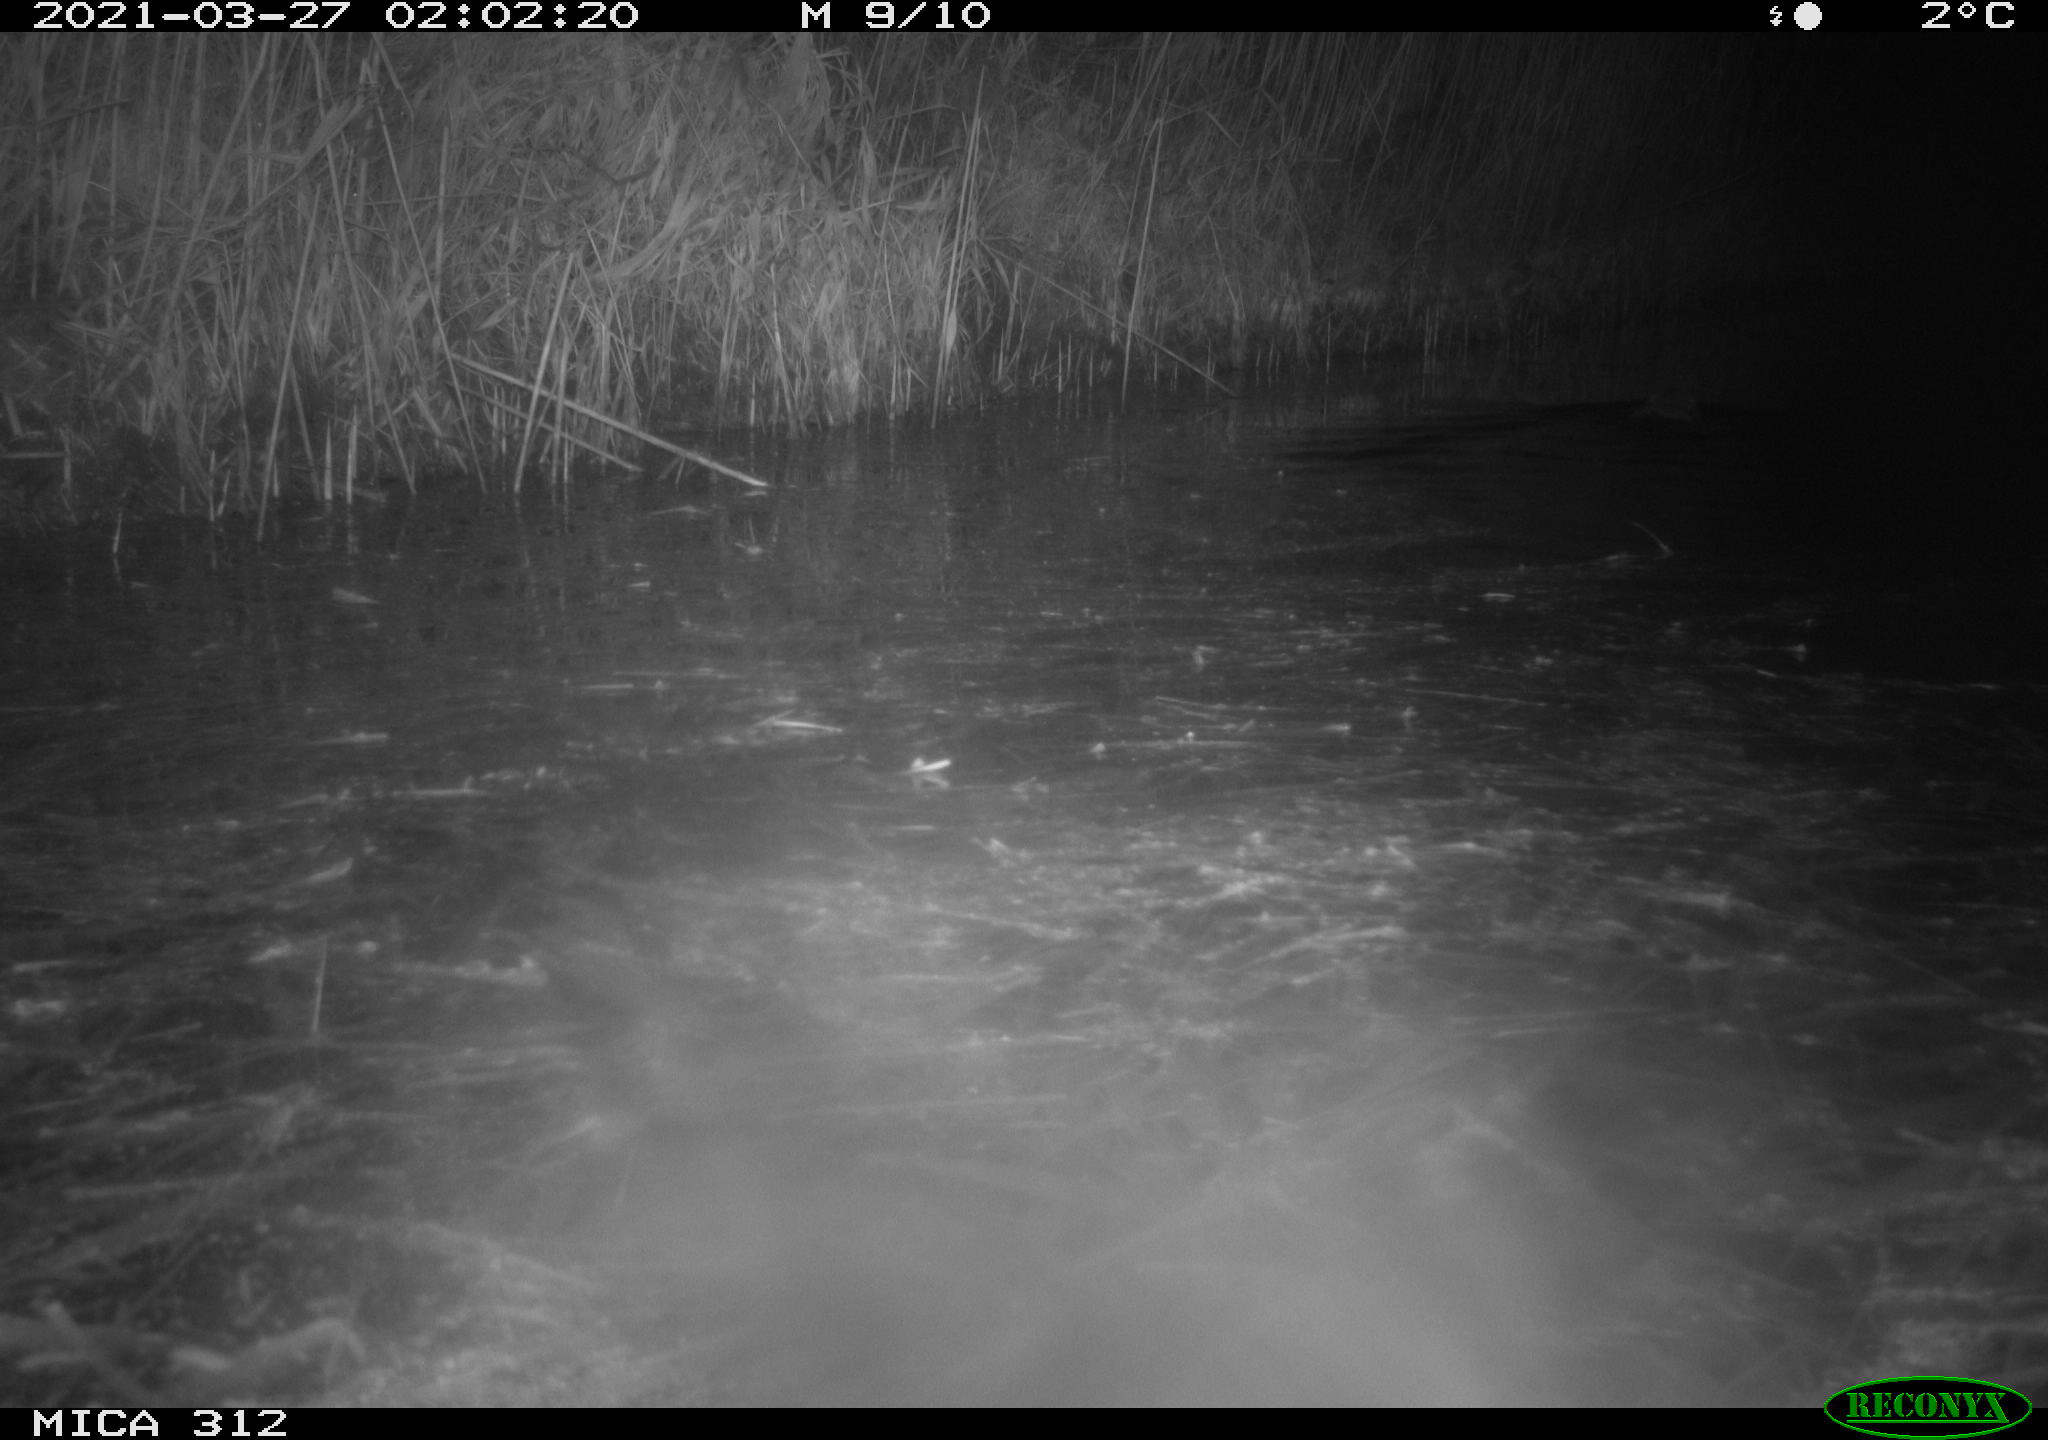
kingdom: Animalia
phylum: Chordata
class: Mammalia
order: Rodentia
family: Cricetidae
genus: Ondatra
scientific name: Ondatra zibethicus
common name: Muskrat
